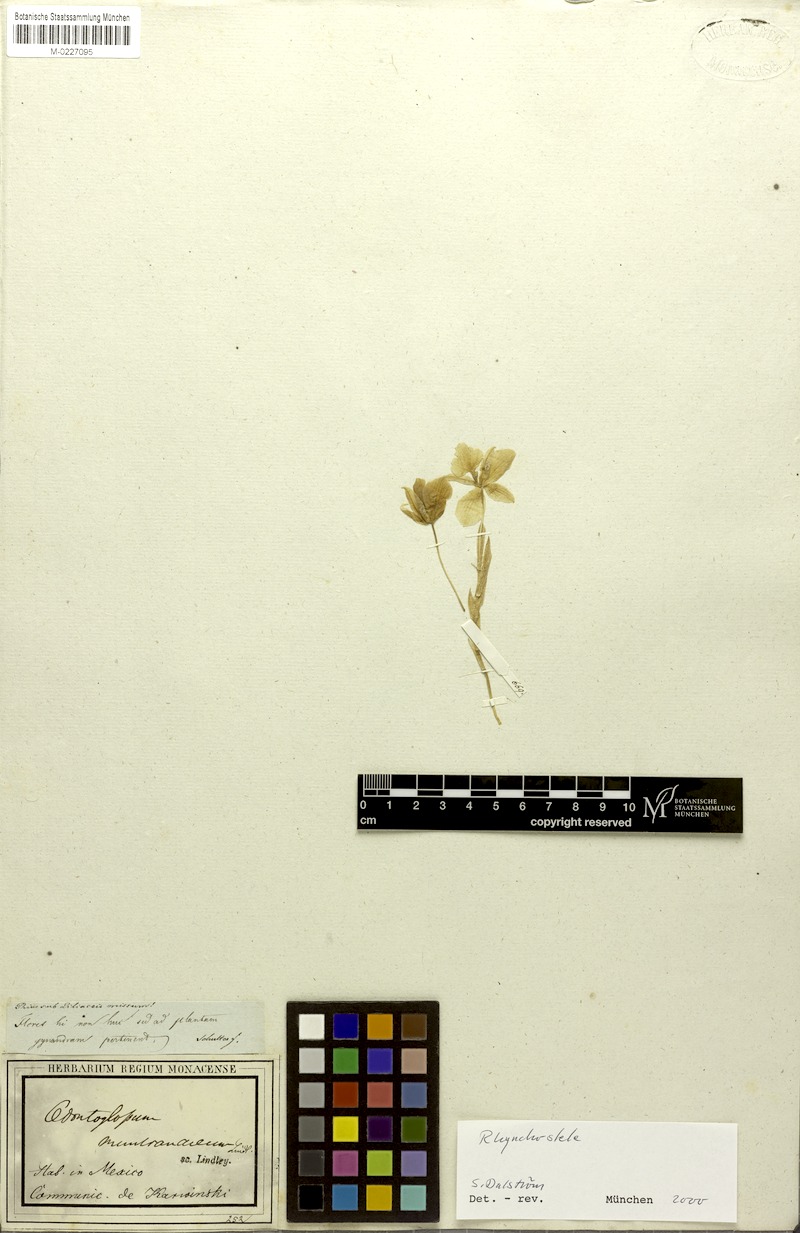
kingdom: Plantae
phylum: Tracheophyta
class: Liliopsida
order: Asparagales
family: Orchidaceae
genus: Rhynchostele
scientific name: Rhynchostele cervantesii
